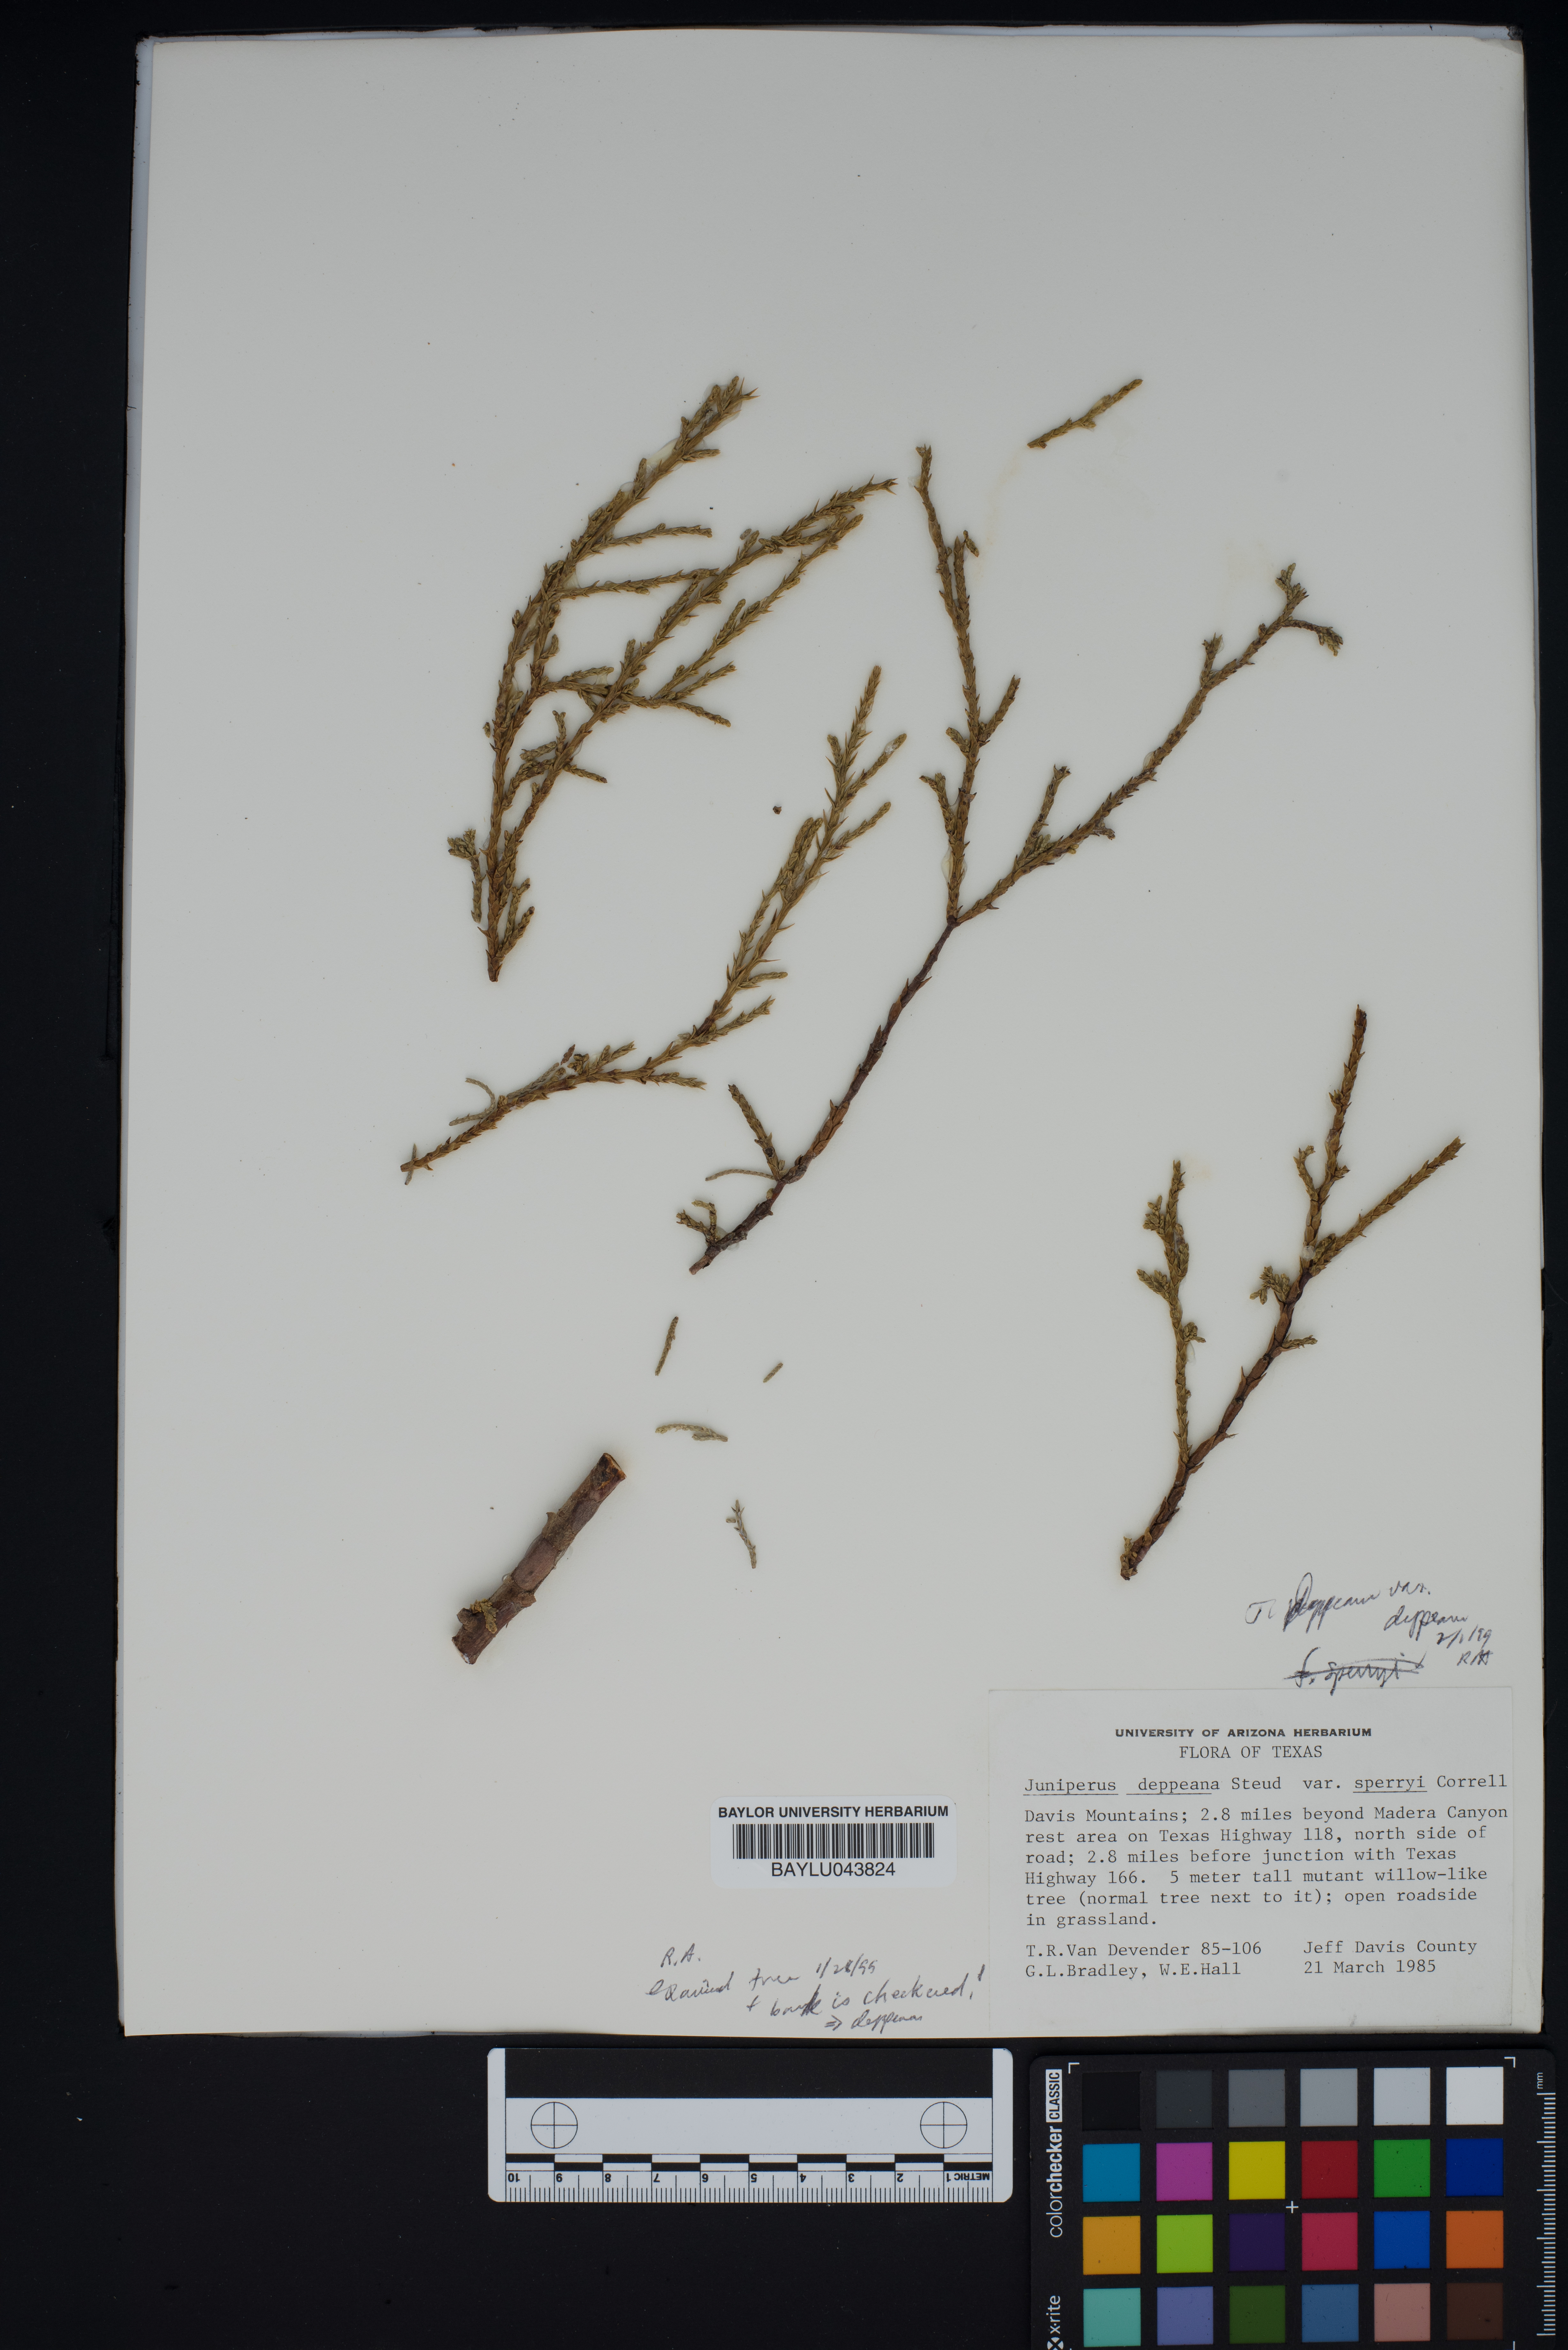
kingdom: Plantae
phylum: Tracheophyta
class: Pinopsida
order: Pinales
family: Cupressaceae
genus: Juniperus
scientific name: Juniperus deppeana
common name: Alligator juniper
